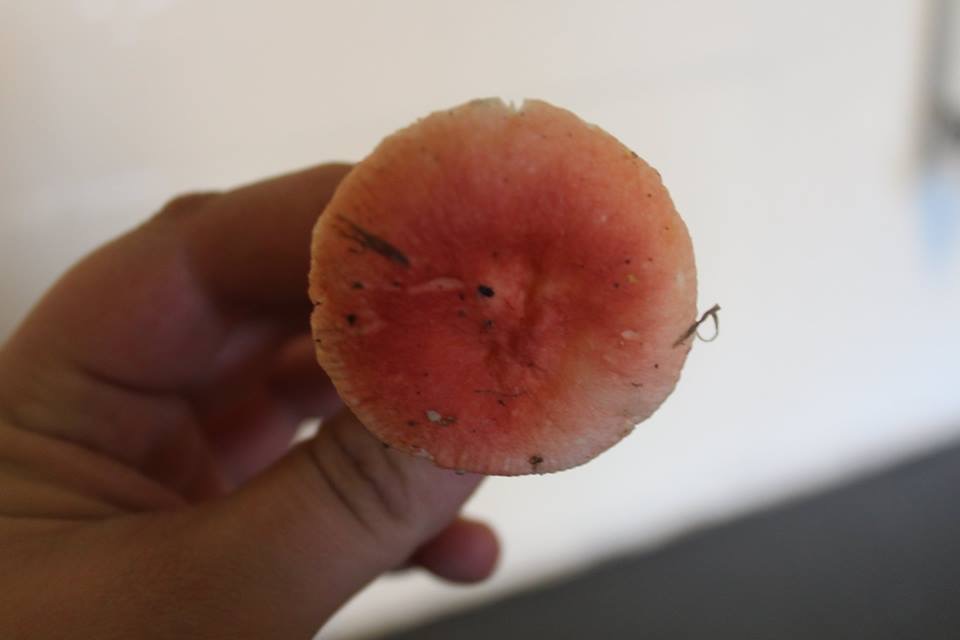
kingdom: Fungi
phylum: Basidiomycota
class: Agaricomycetes
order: Russulales
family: Russulaceae
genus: Russula
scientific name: Russula
